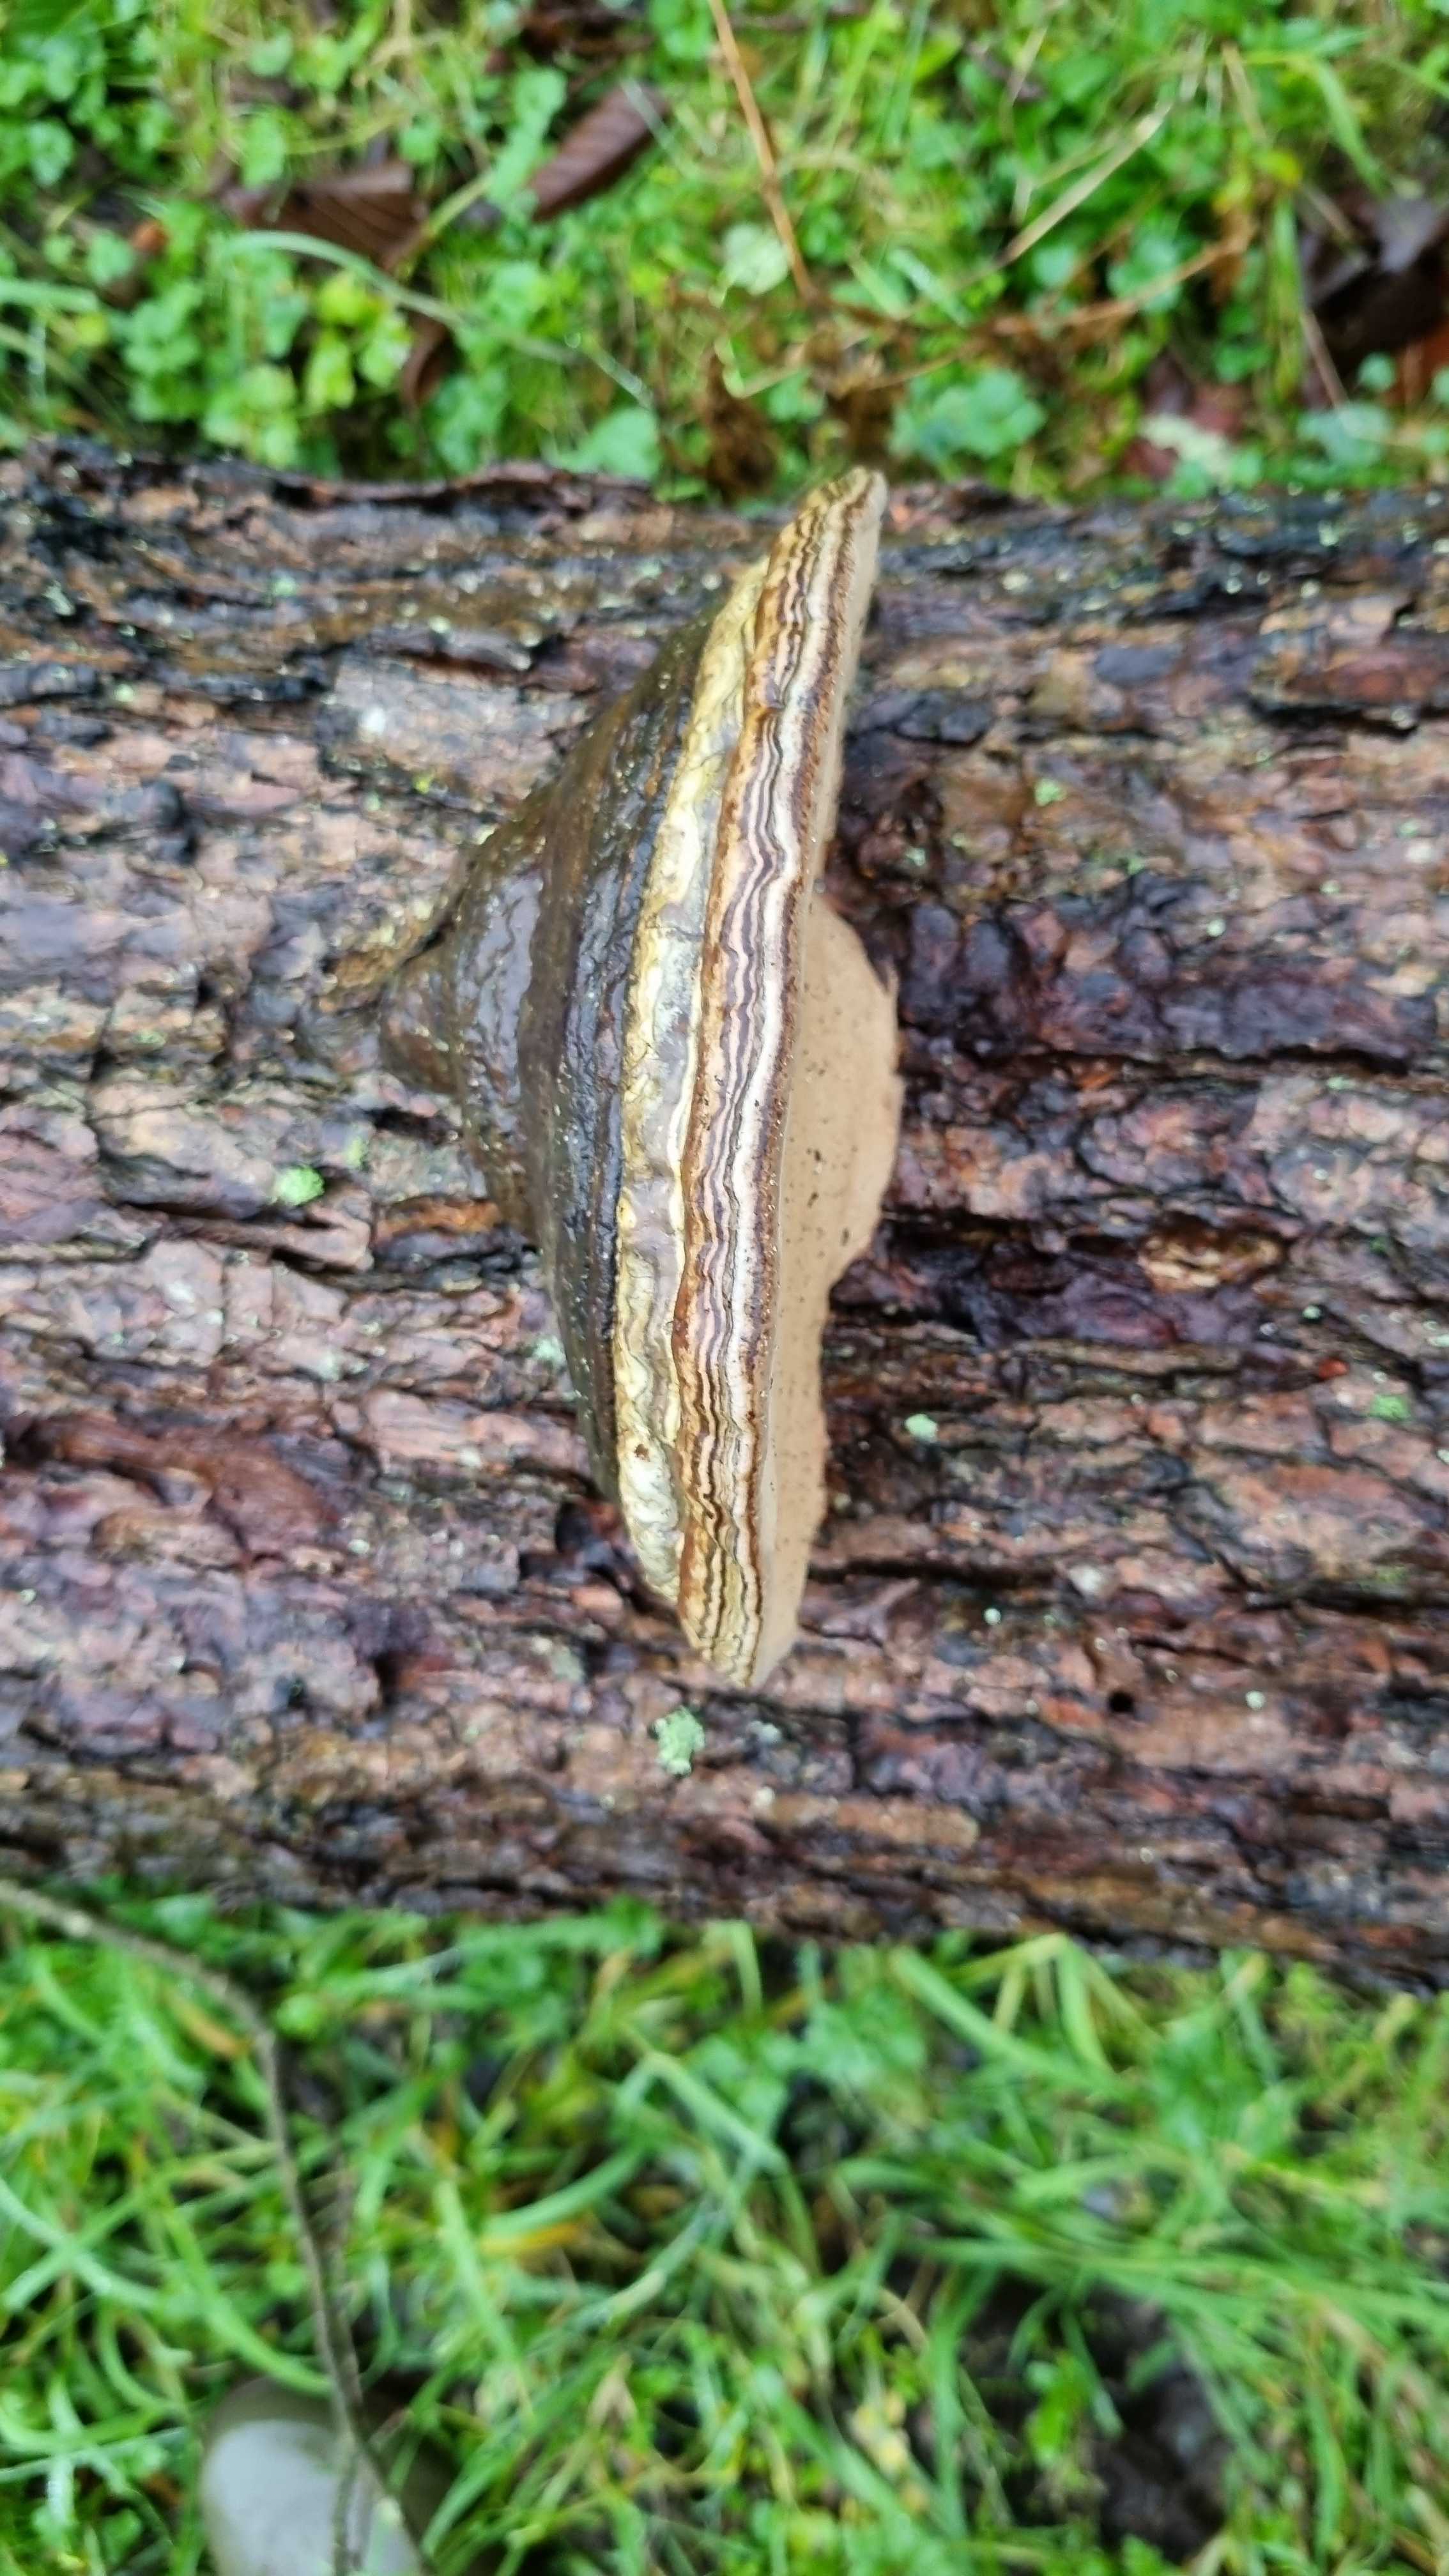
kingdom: Fungi
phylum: Basidiomycota
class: Agaricomycetes
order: Polyporales
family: Polyporaceae
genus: Fomes
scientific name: Fomes fomentarius
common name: tøndersvamp
